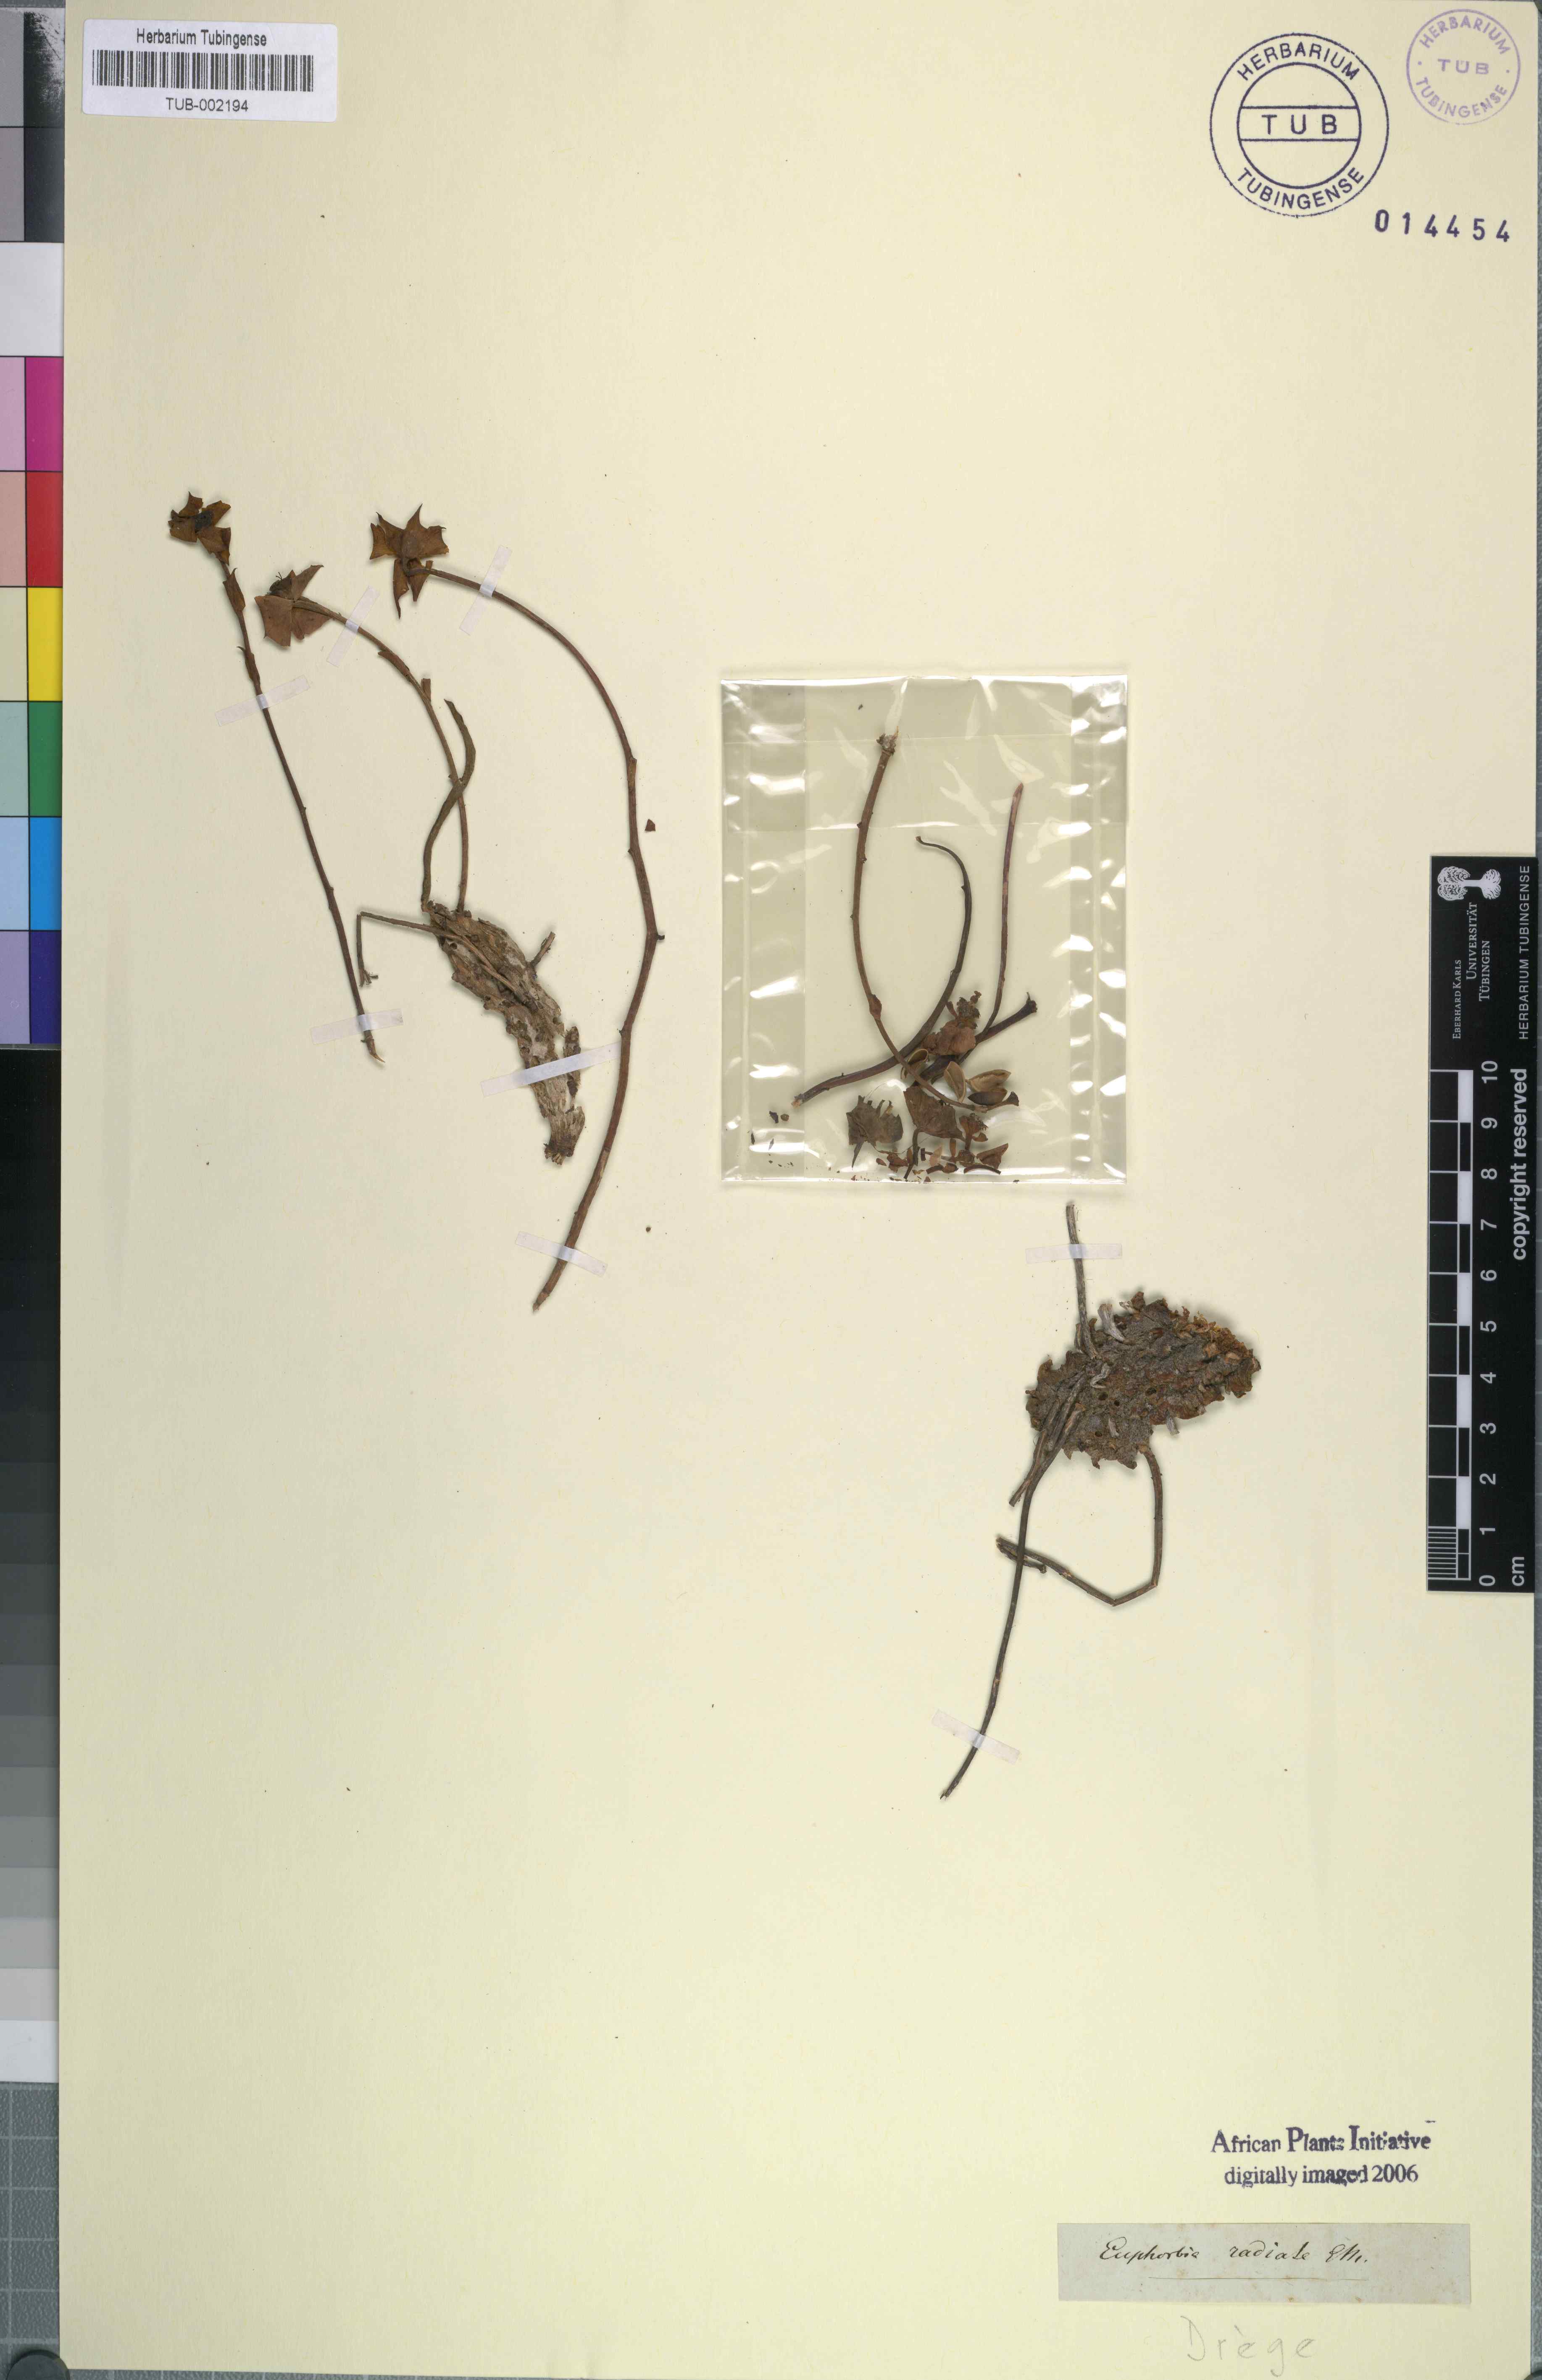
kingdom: Plantae
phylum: Tracheophyta
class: Magnoliopsida
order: Malpighiales
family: Euphorbiaceae
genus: Euphorbia
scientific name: Euphorbia clava
